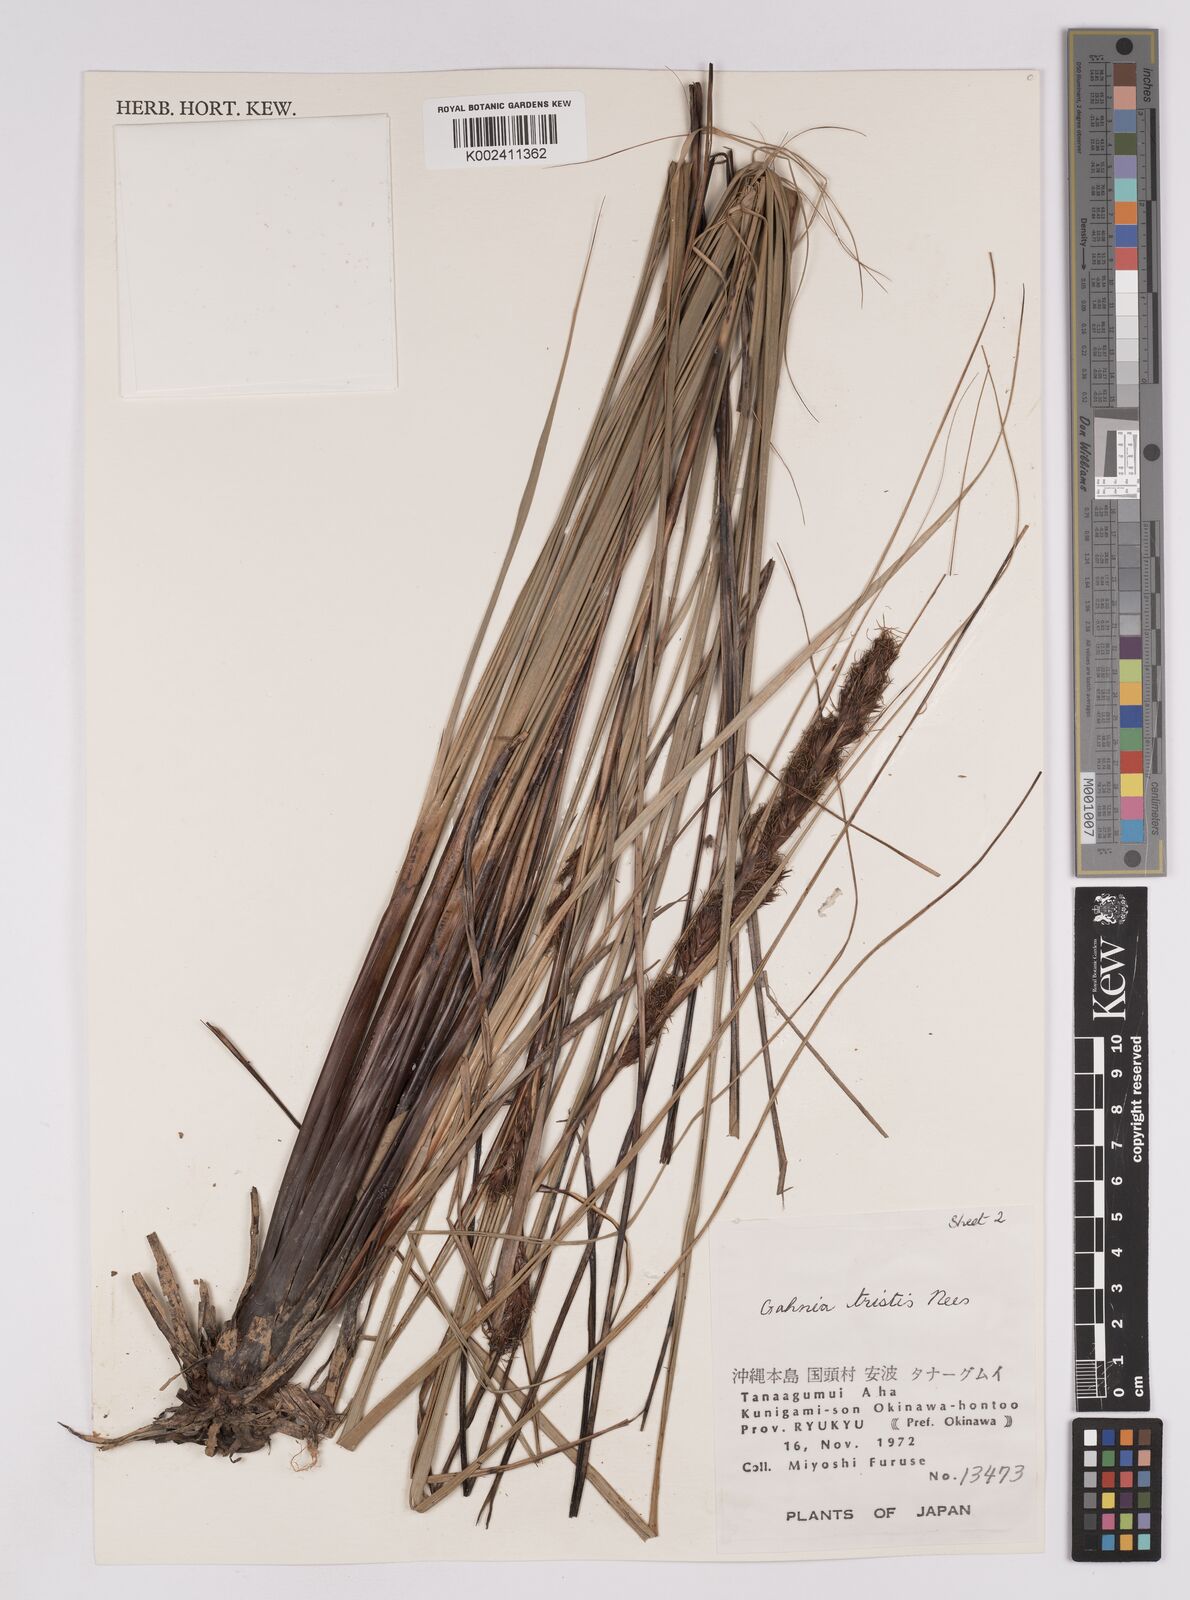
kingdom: Plantae
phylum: Tracheophyta
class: Liliopsida
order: Poales
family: Cyperaceae
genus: Gahnia
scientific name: Gahnia tristis
